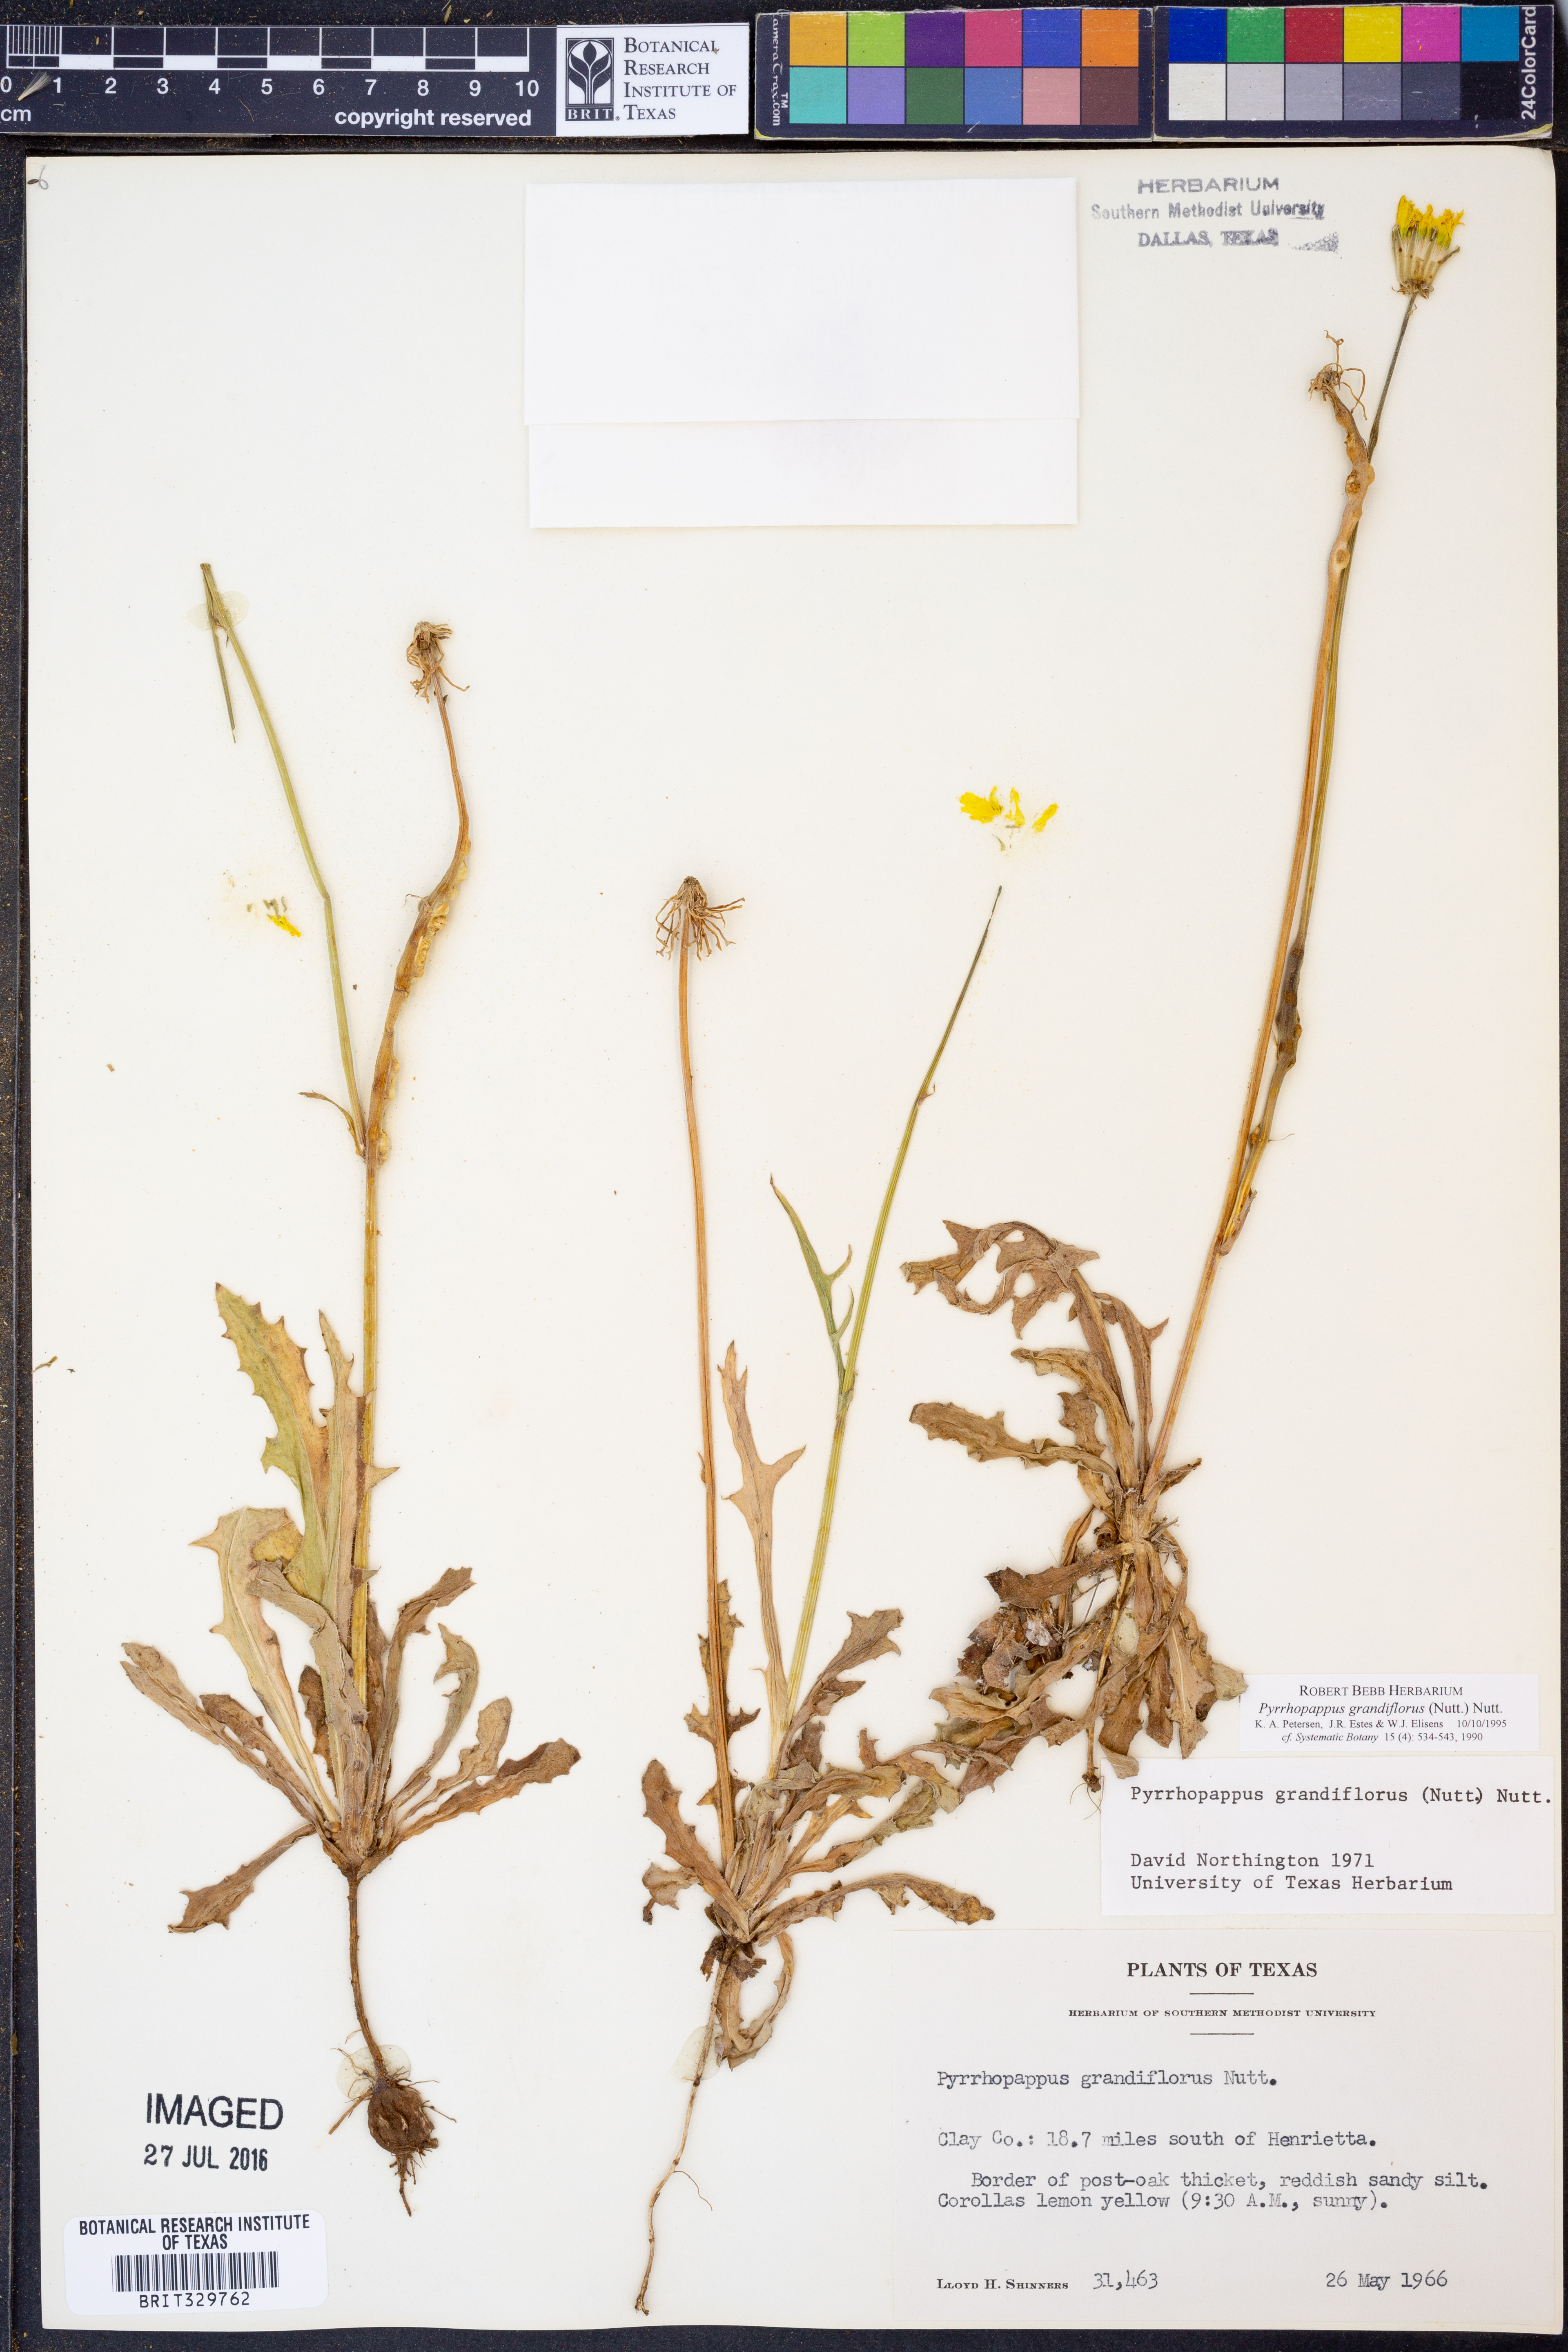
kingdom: Plantae
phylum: Tracheophyta
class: Magnoliopsida
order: Asterales
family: Asteraceae
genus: Pyrrhopappus
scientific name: Pyrrhopappus grandiflorus
